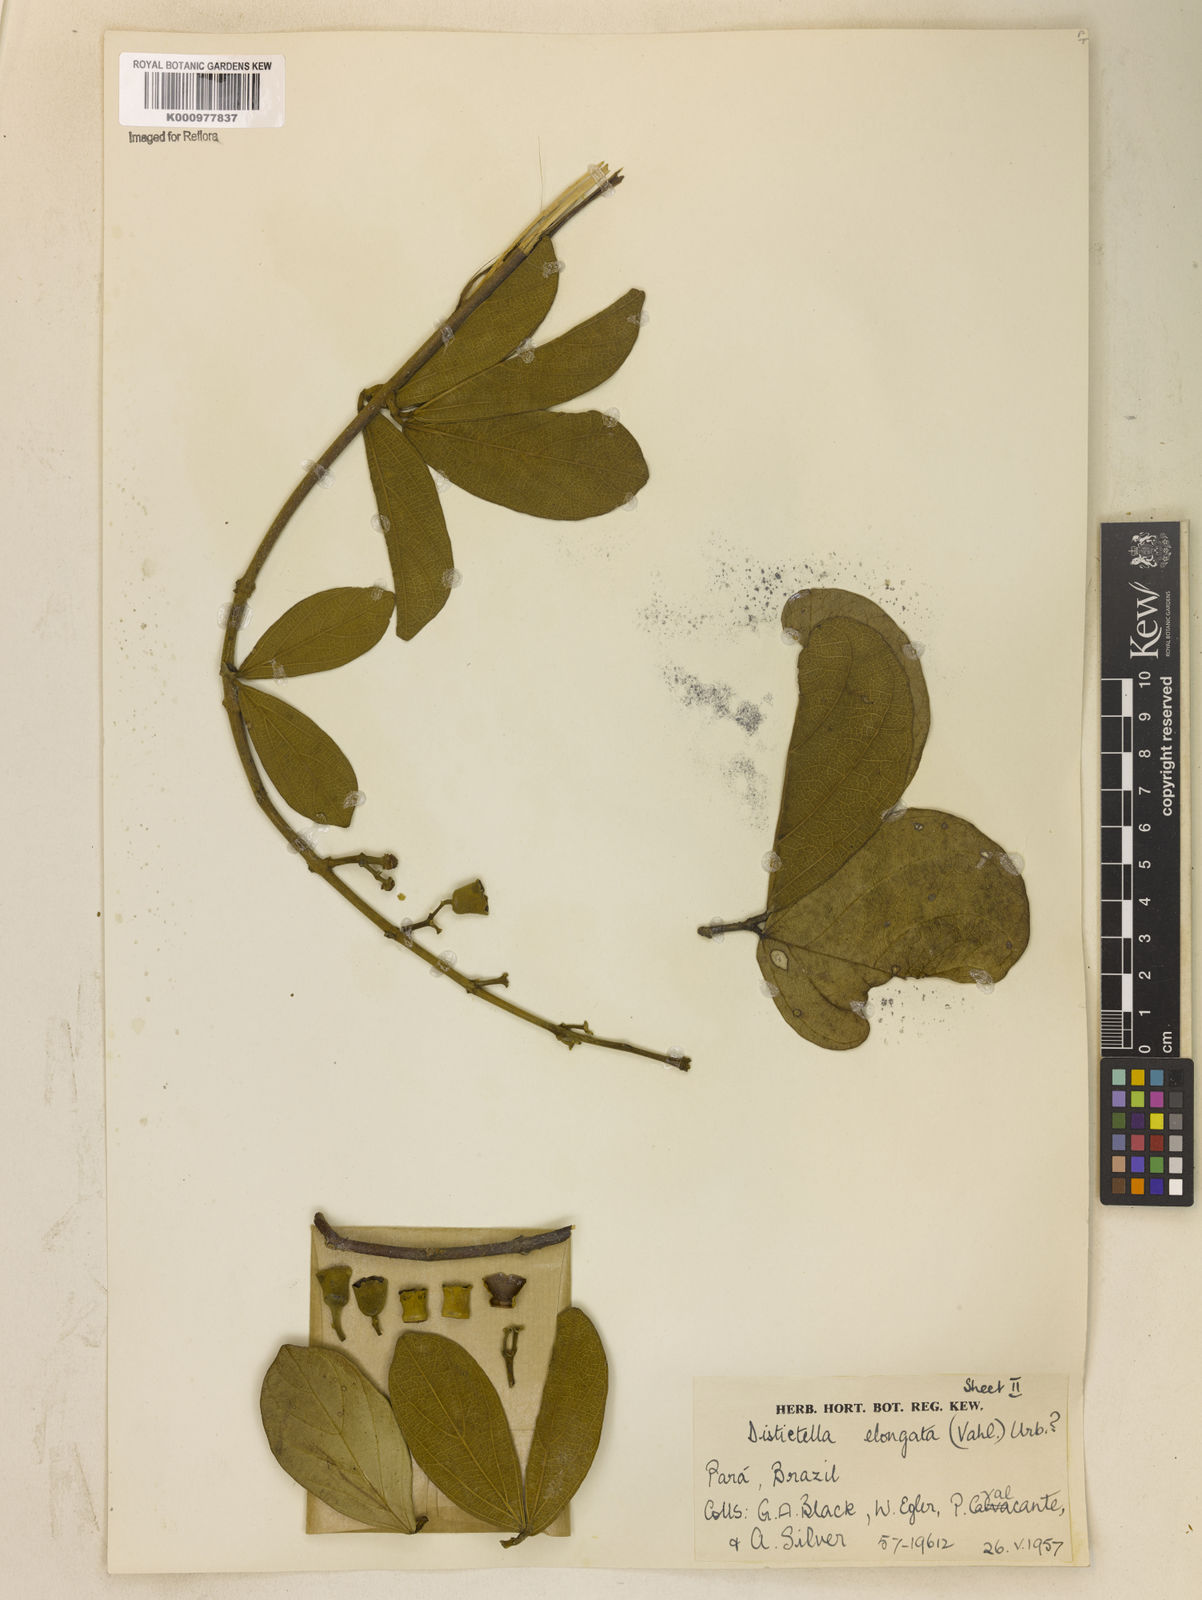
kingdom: Plantae
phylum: Tracheophyta
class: Magnoliopsida
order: Lamiales
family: Bignoniaceae
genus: Amphilophium
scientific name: Amphilophium elongatum
